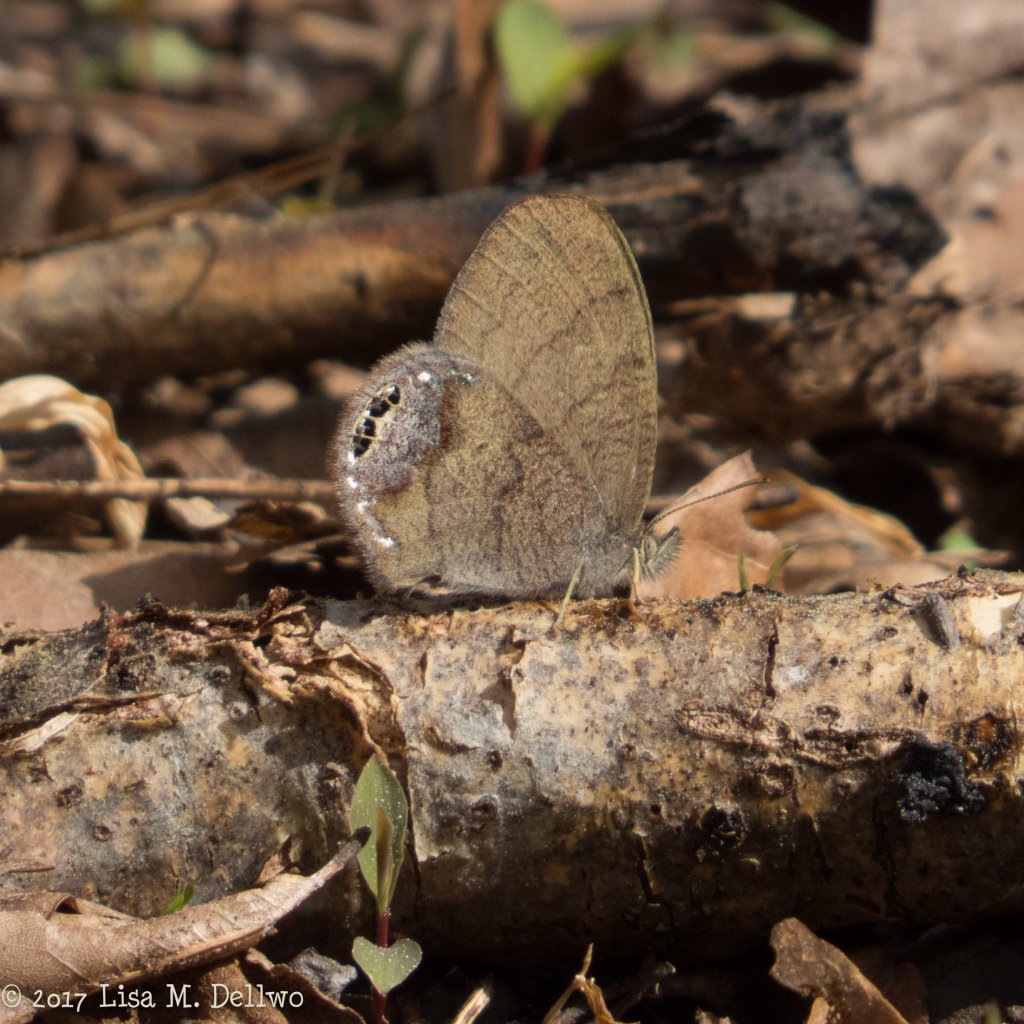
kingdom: Animalia
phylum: Arthropoda
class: Insecta
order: Lepidoptera
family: Nymphalidae
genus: Euptychia
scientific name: Euptychia cornelius
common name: Gemmed Satyr
